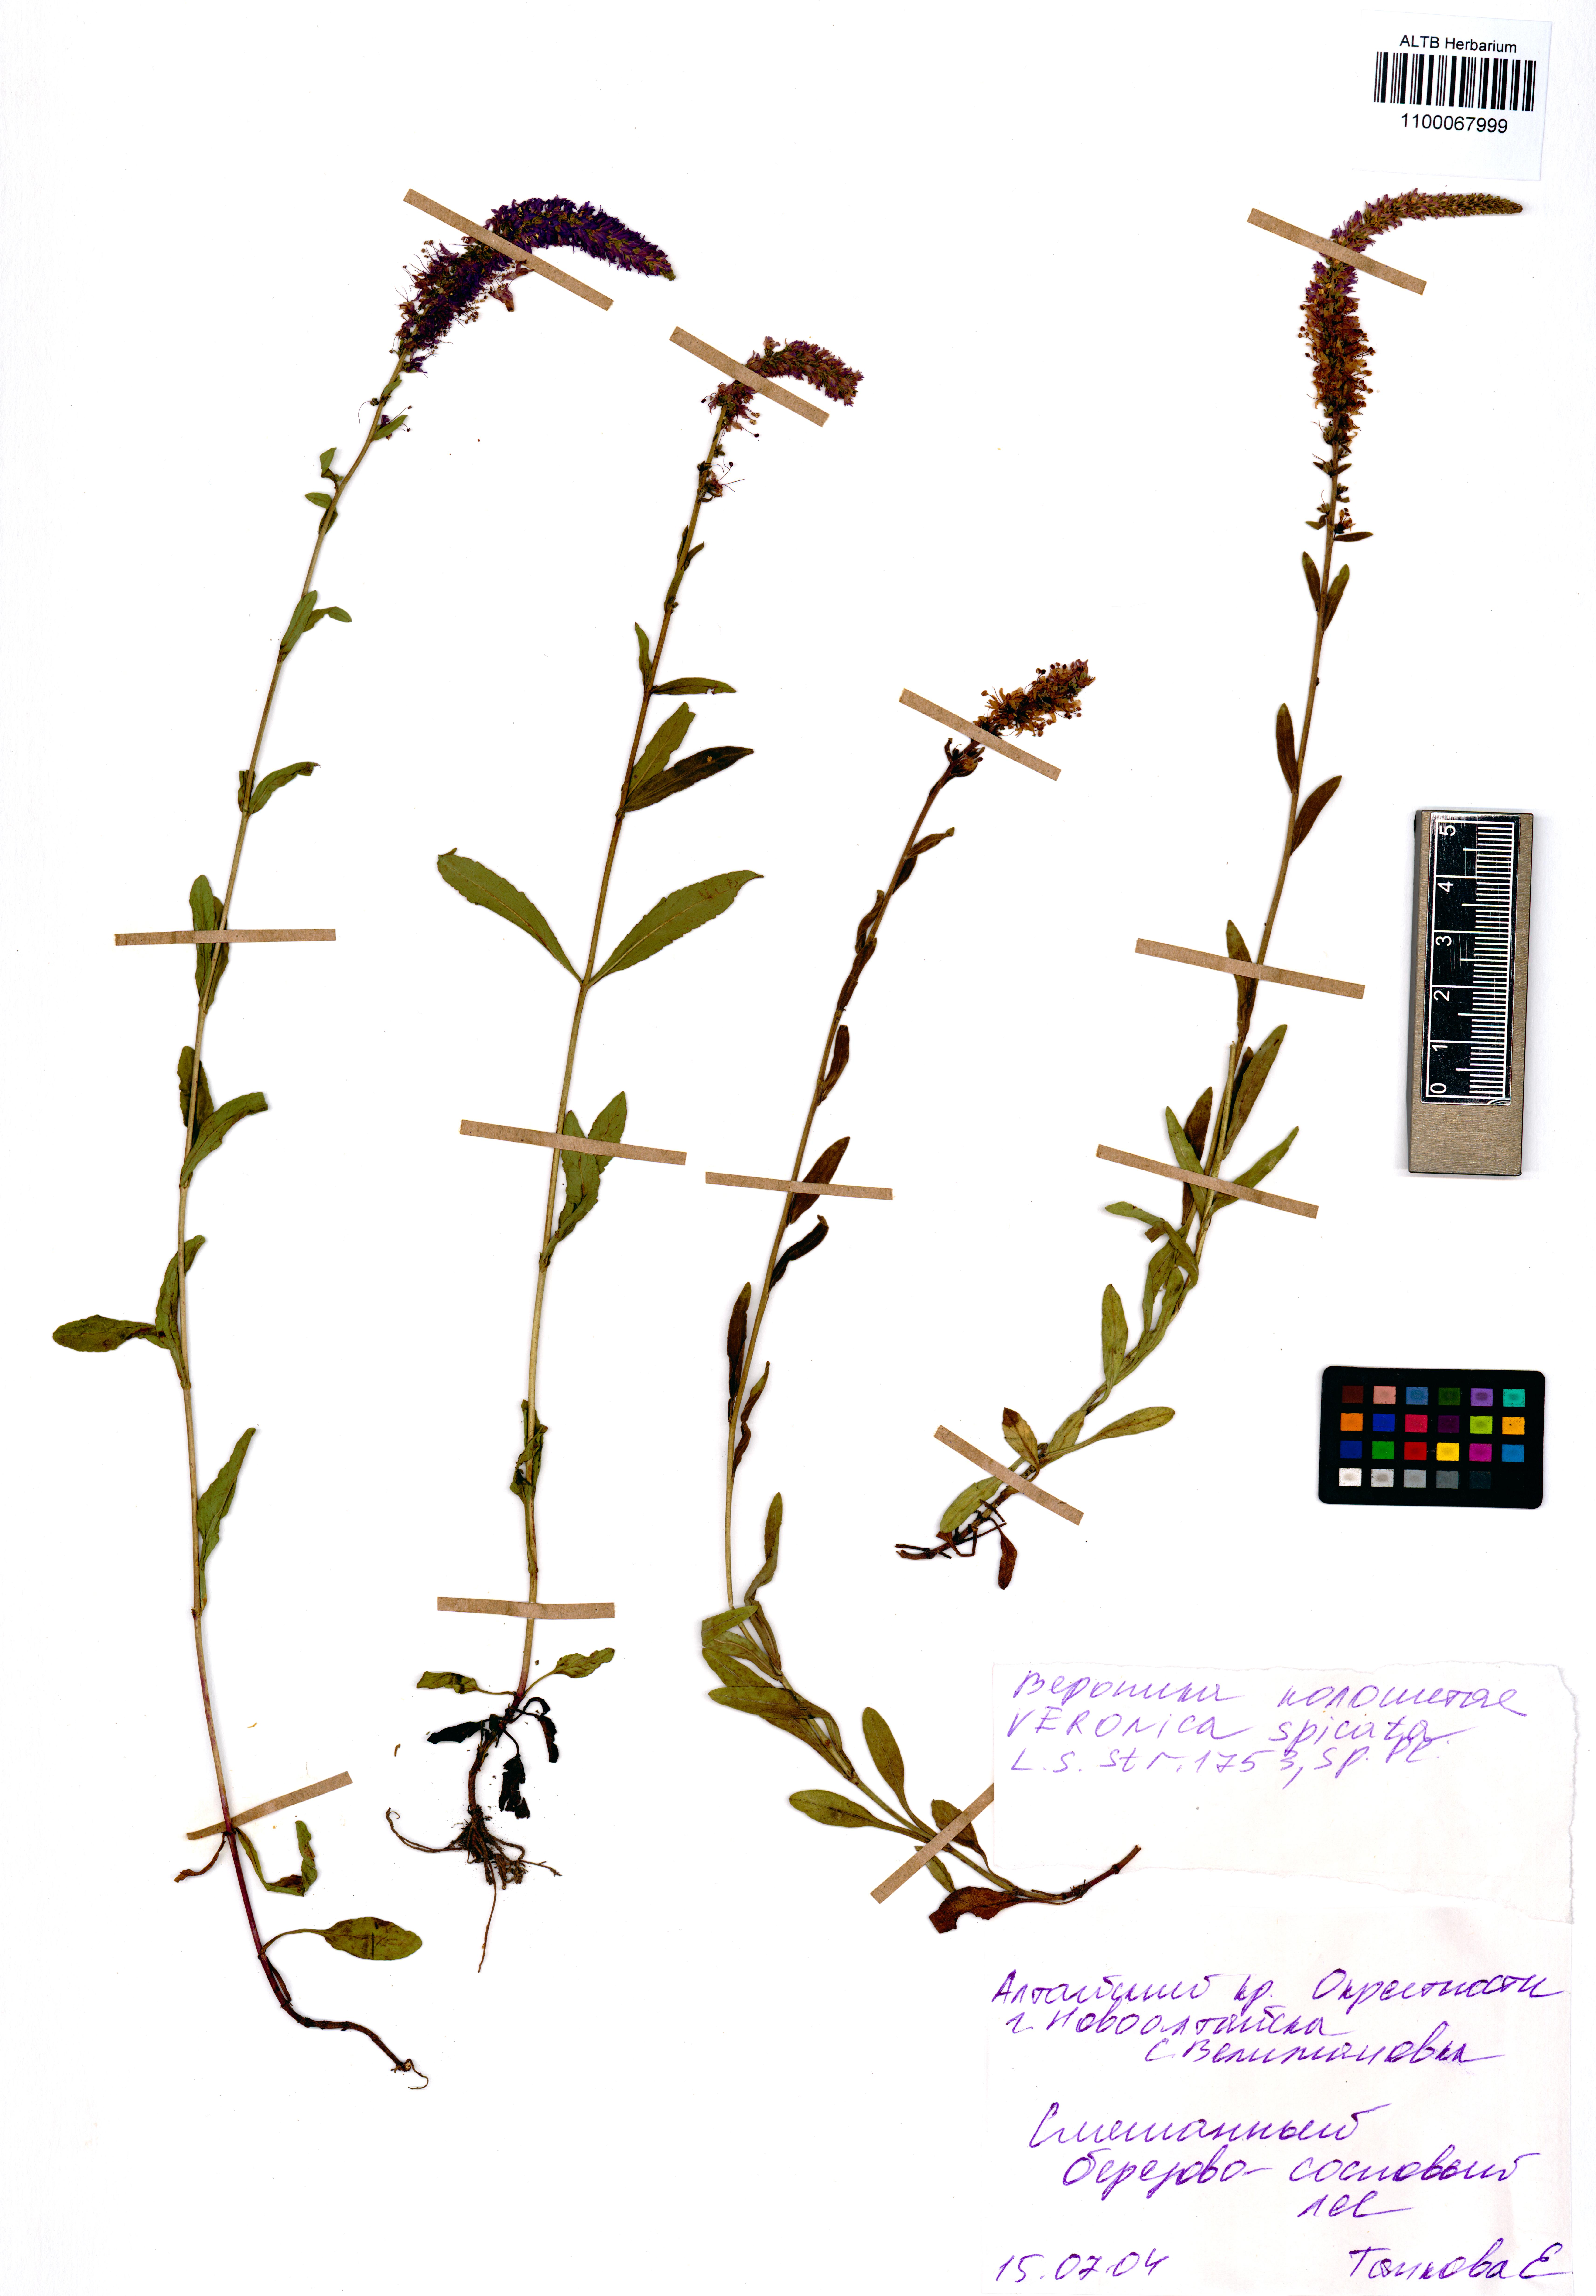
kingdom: Plantae
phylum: Tracheophyta
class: Magnoliopsida
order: Lamiales
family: Plantaginaceae
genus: Veronica
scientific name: Veronica spicata
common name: Spiked speedwell
